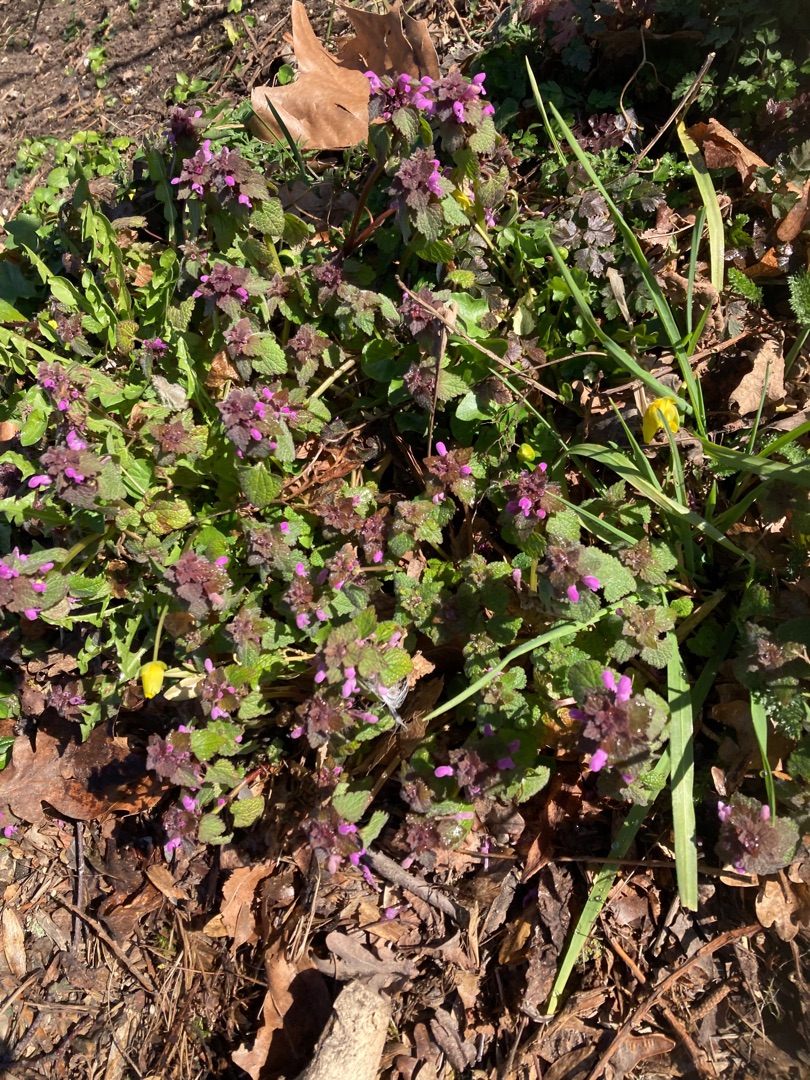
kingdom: Plantae
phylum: Tracheophyta
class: Magnoliopsida
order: Lamiales
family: Lamiaceae
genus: Lamium
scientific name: Lamium purpureum
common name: Rød tvetand
